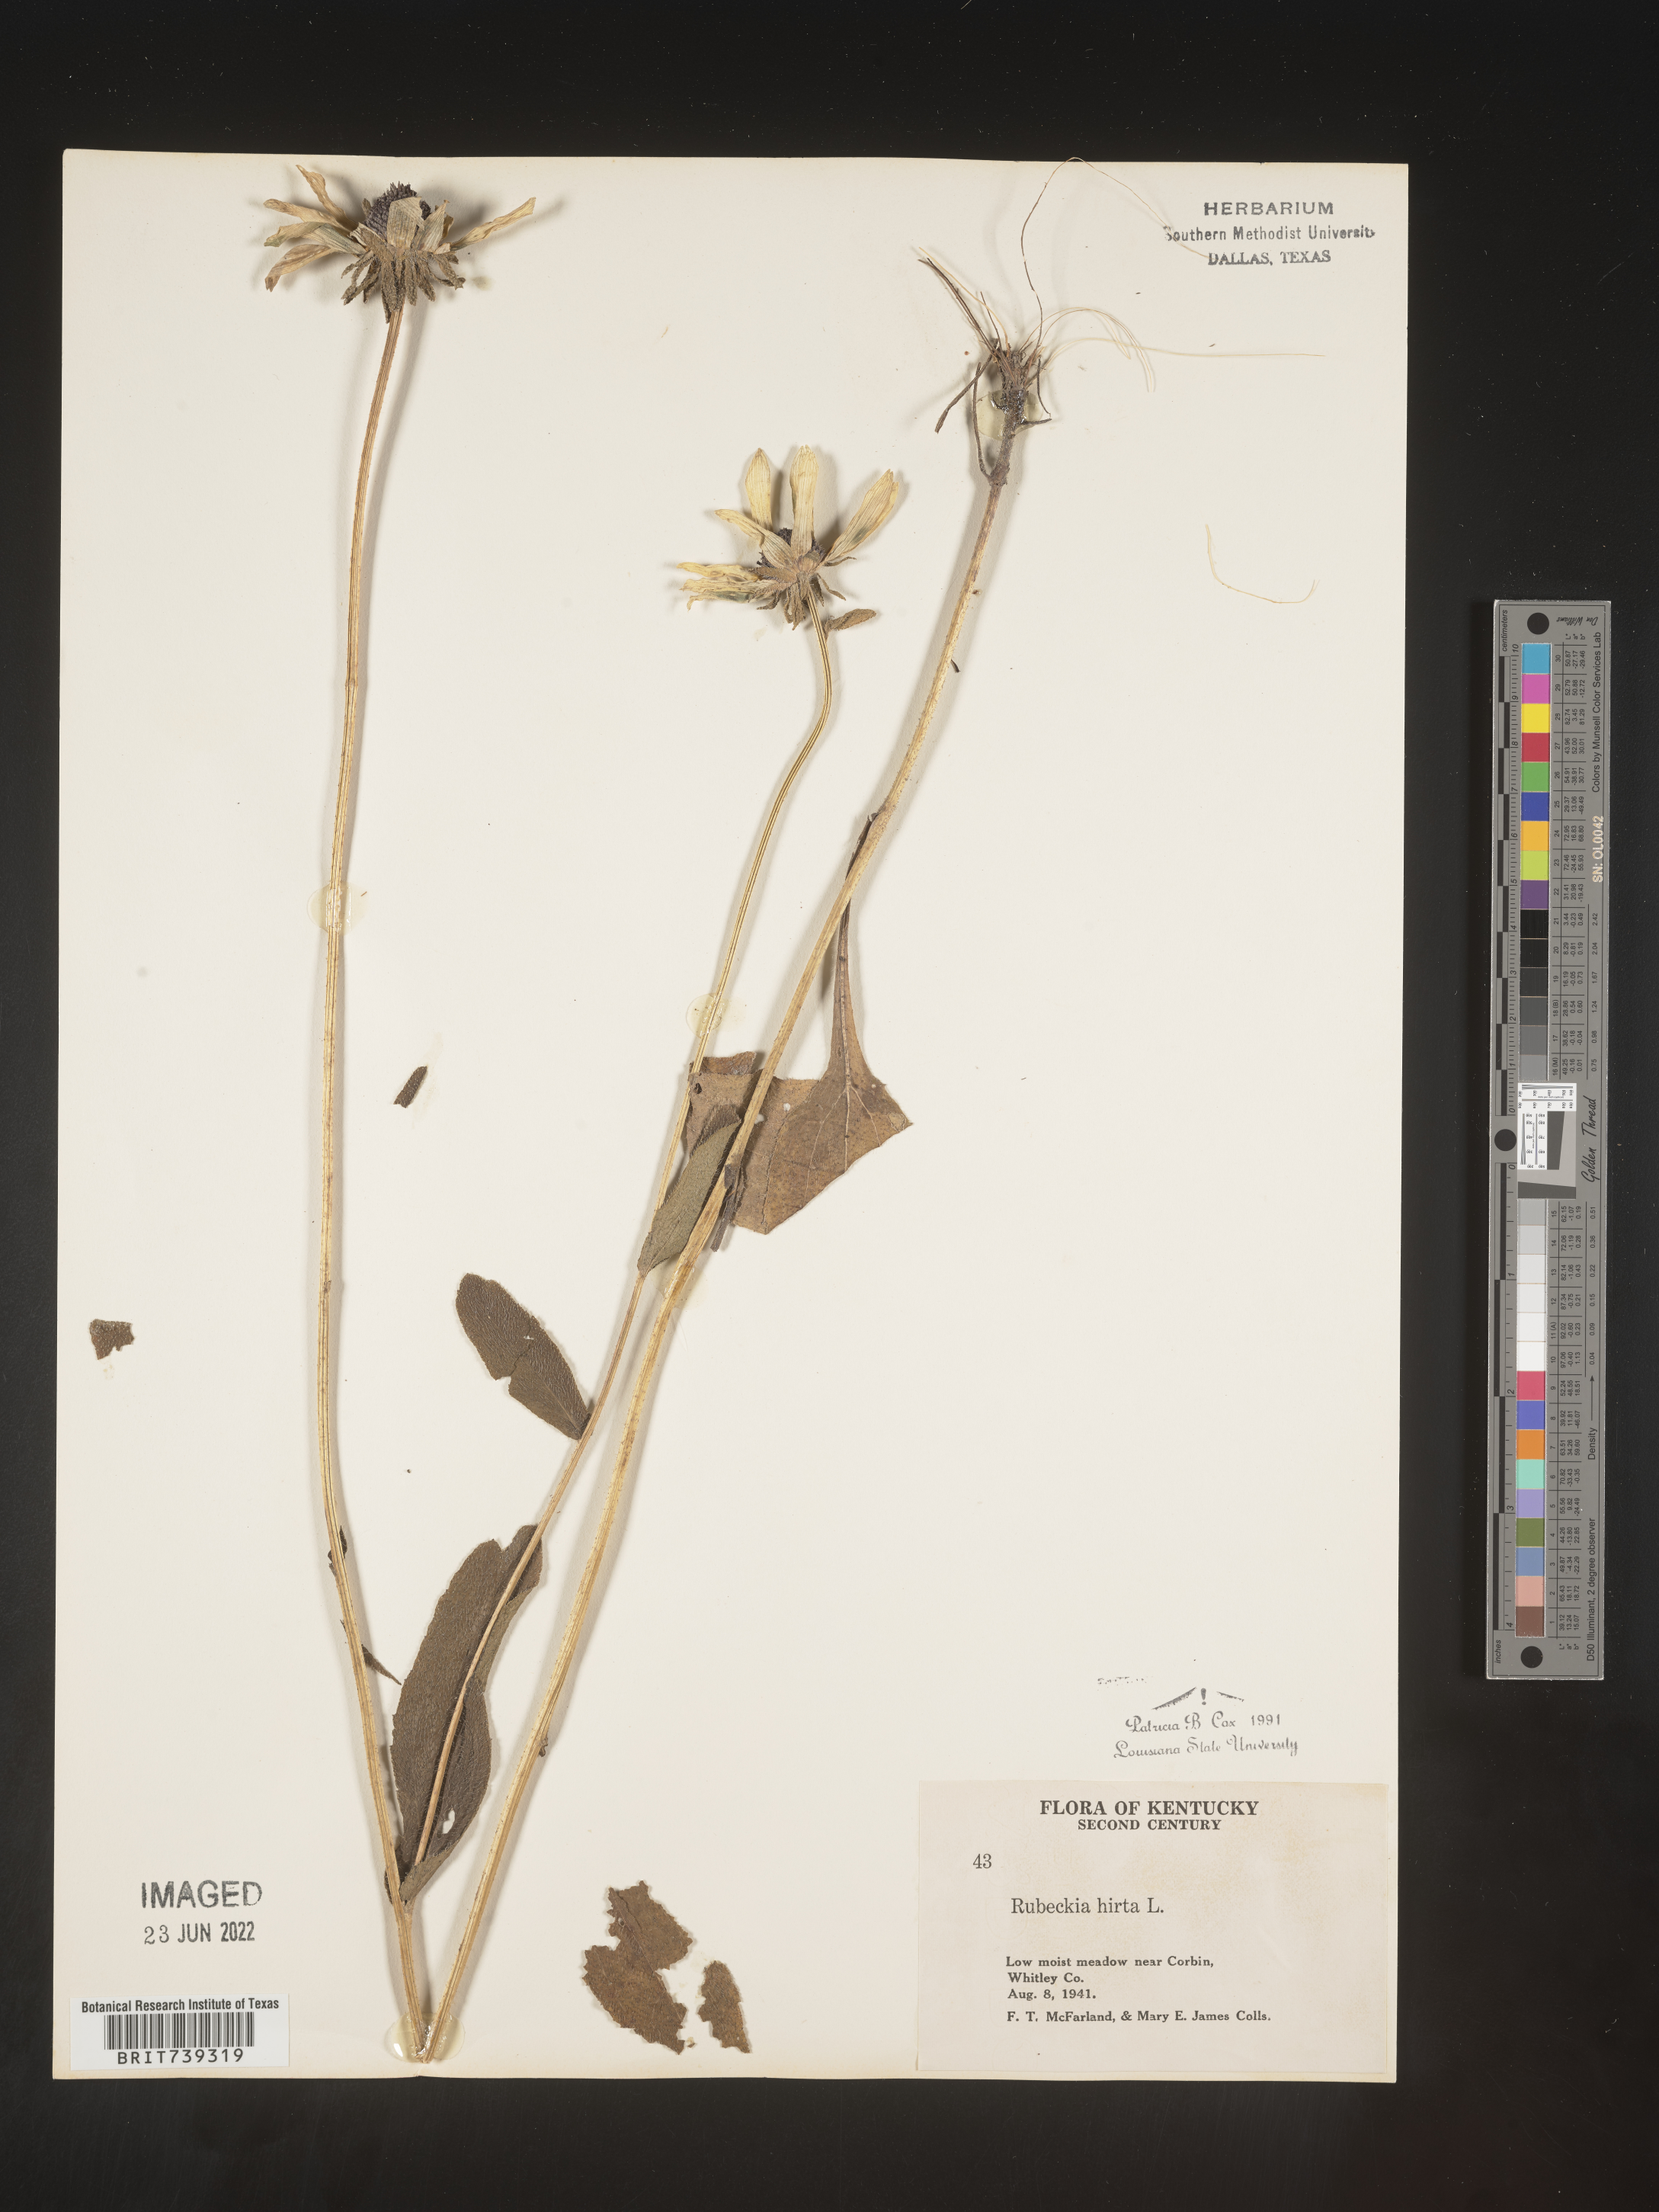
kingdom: Plantae
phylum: Tracheophyta
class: Magnoliopsida
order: Asterales
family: Asteraceae
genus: Rudbeckia
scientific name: Rudbeckia hirta
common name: Black-eyed-susan
